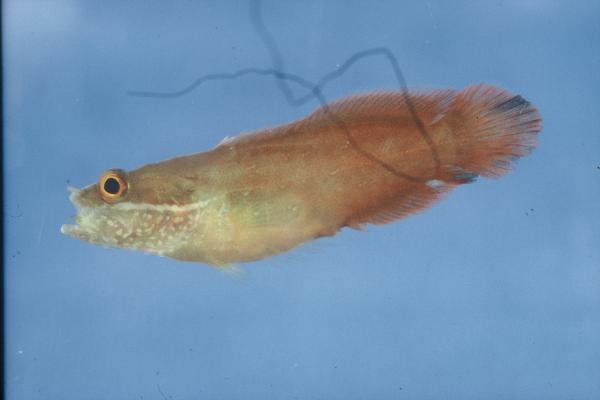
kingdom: Animalia
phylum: Chordata
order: Perciformes
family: Serranidae
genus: Suttonia
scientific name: Suttonia suttoni
